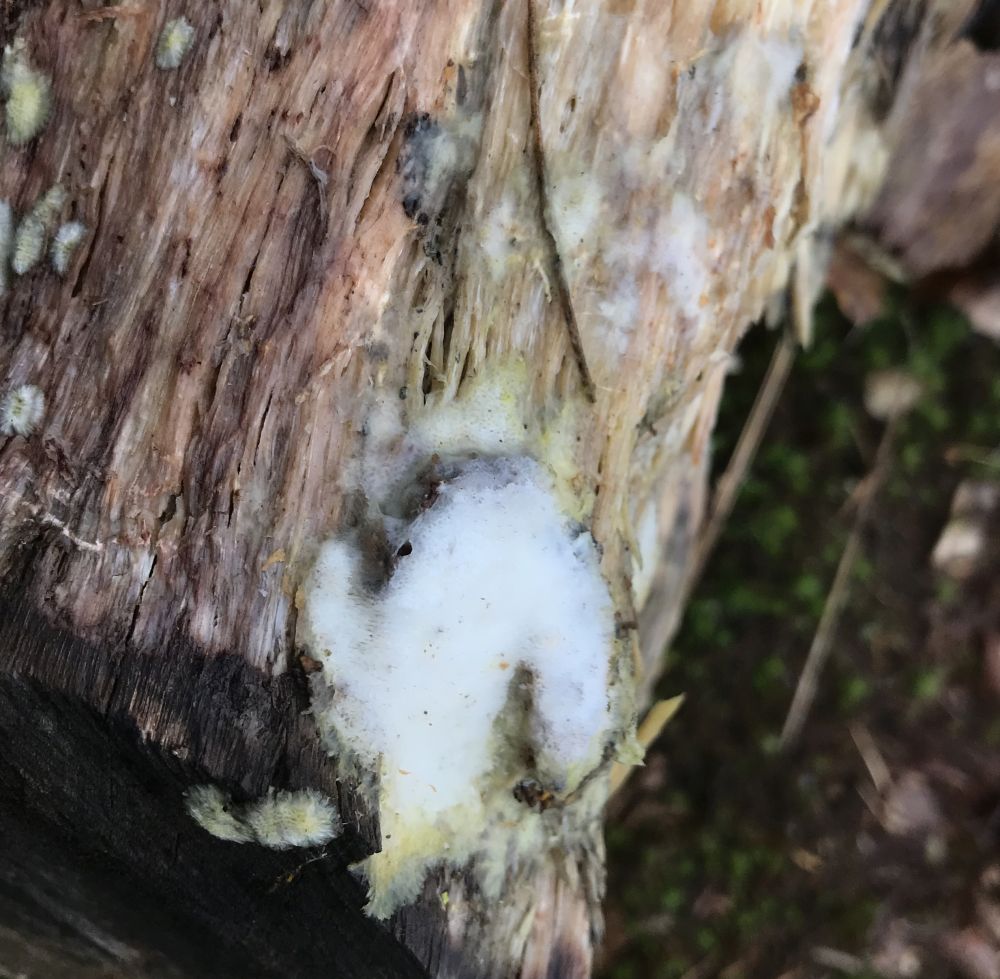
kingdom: Fungi
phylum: Basidiomycota
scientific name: Basidiomycota
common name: basidiesvampe
